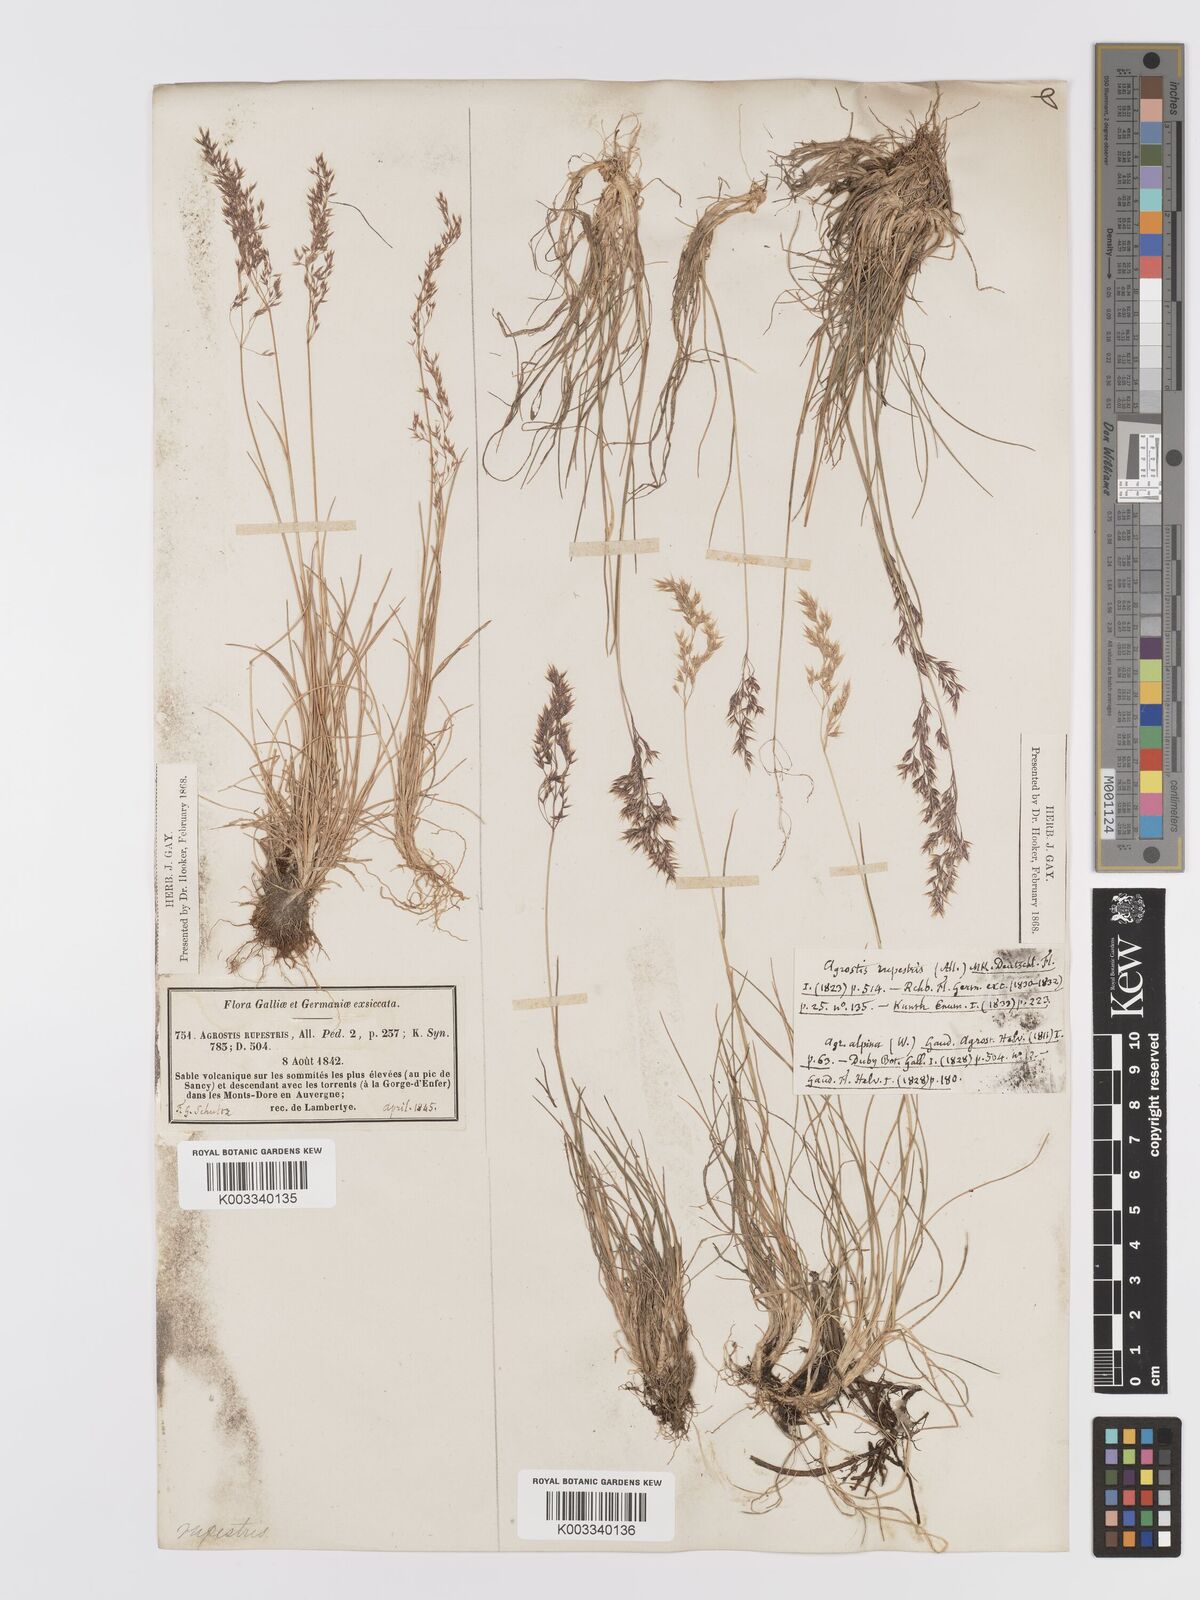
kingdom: Plantae
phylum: Tracheophyta
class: Liliopsida
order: Poales
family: Poaceae
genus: Agrostis
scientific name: Agrostis rupestris
